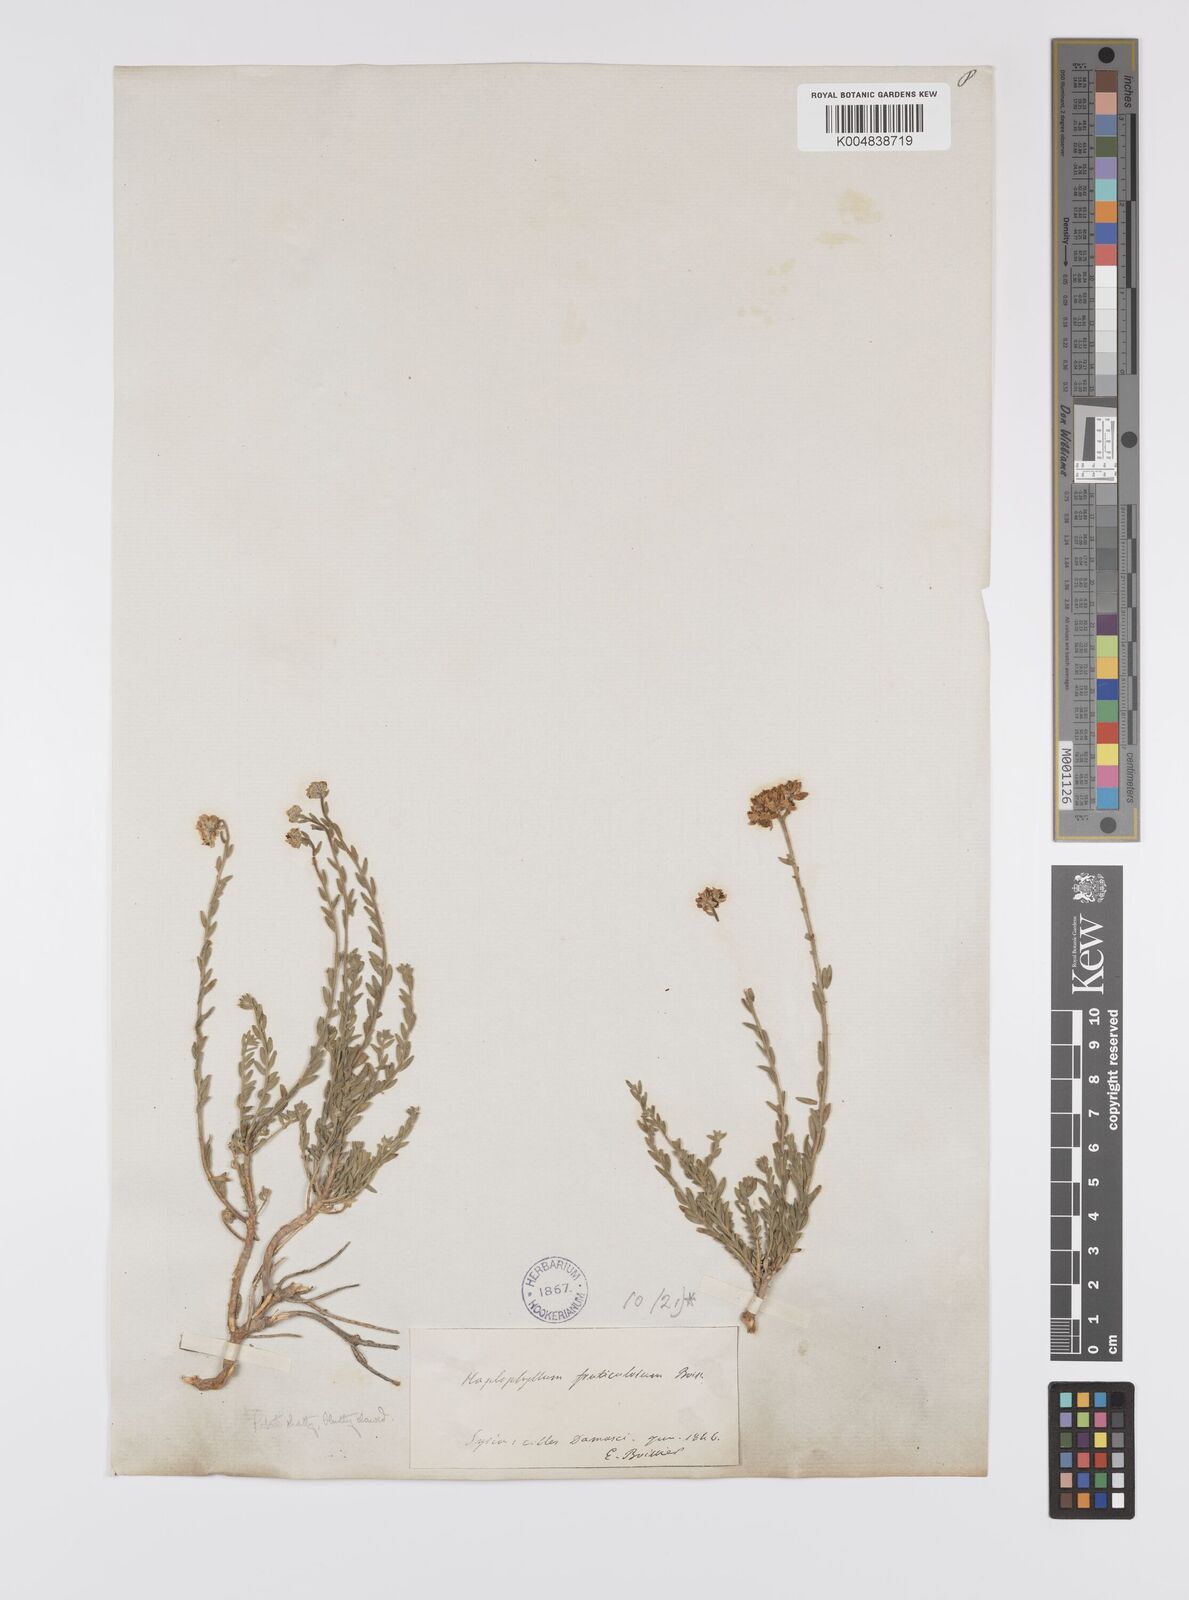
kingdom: Plantae
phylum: Tracheophyta
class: Magnoliopsida
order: Sapindales
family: Rutaceae
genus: Haplophyllum
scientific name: Haplophyllum fruticulosum
